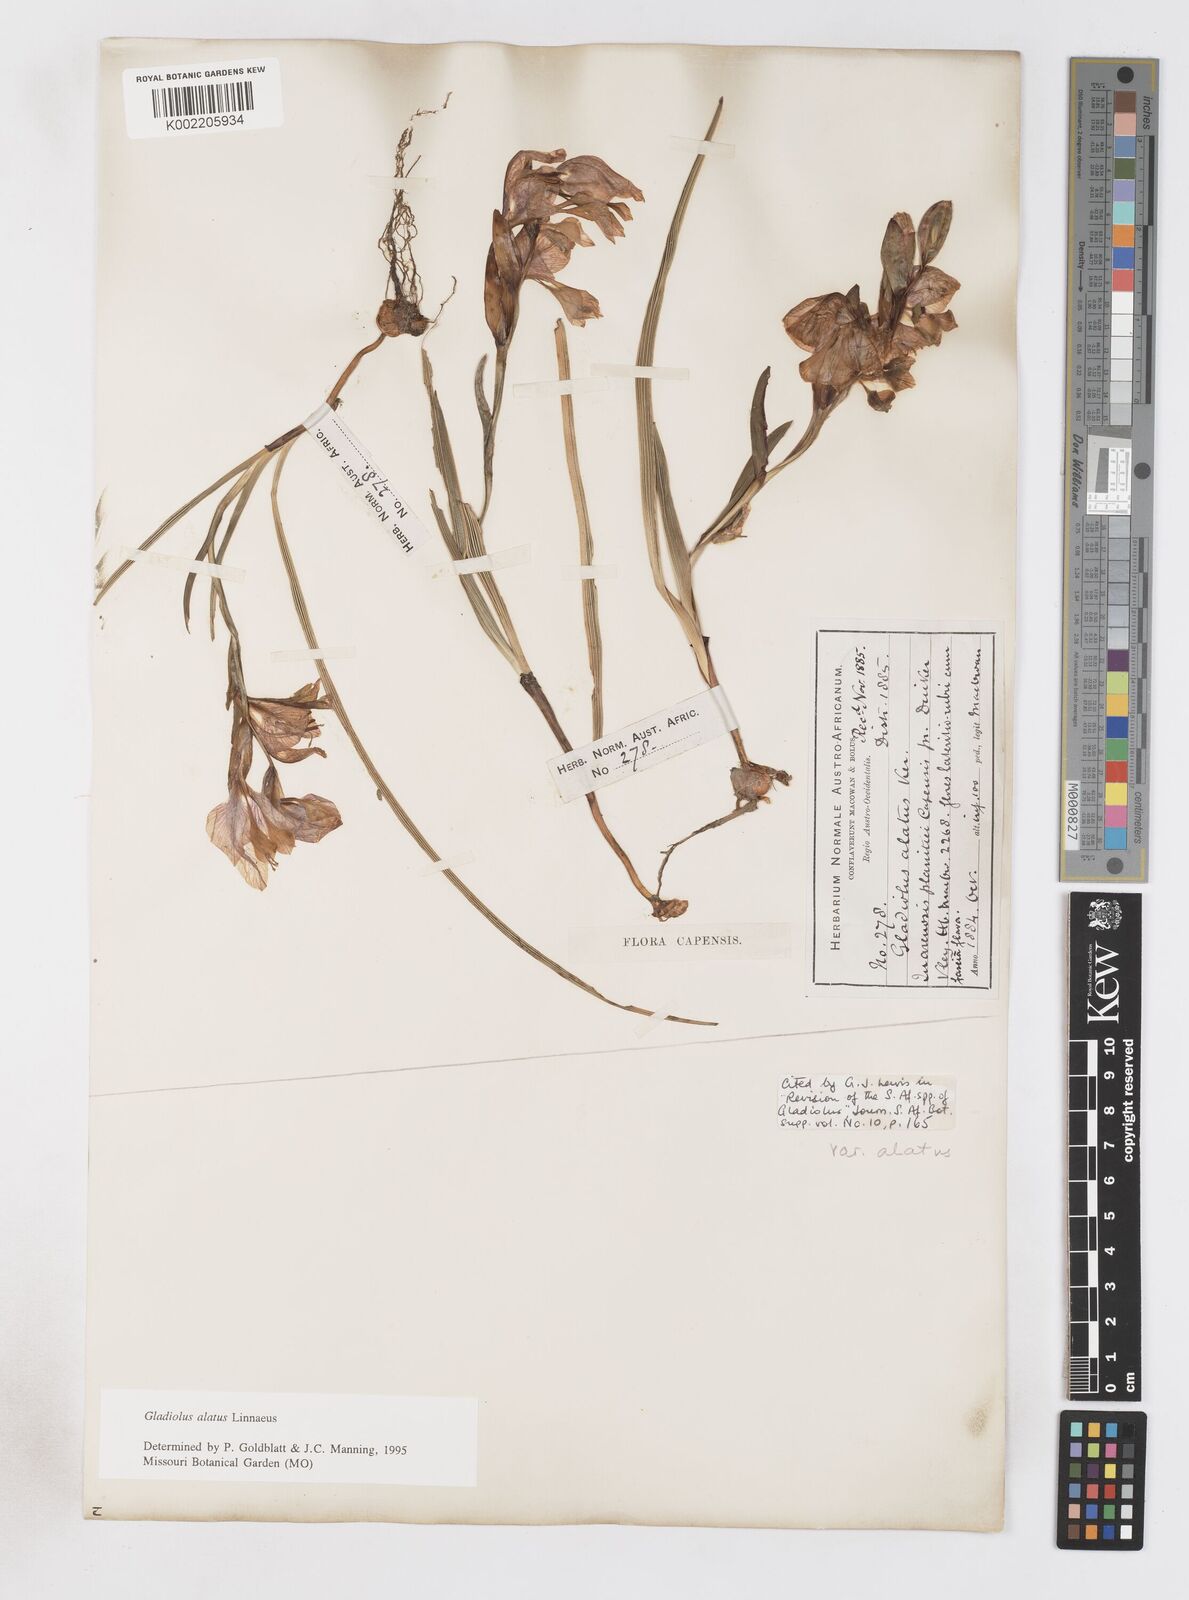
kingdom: Plantae
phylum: Tracheophyta
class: Liliopsida
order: Asparagales
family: Iridaceae
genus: Gladiolus
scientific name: Gladiolus alatus
